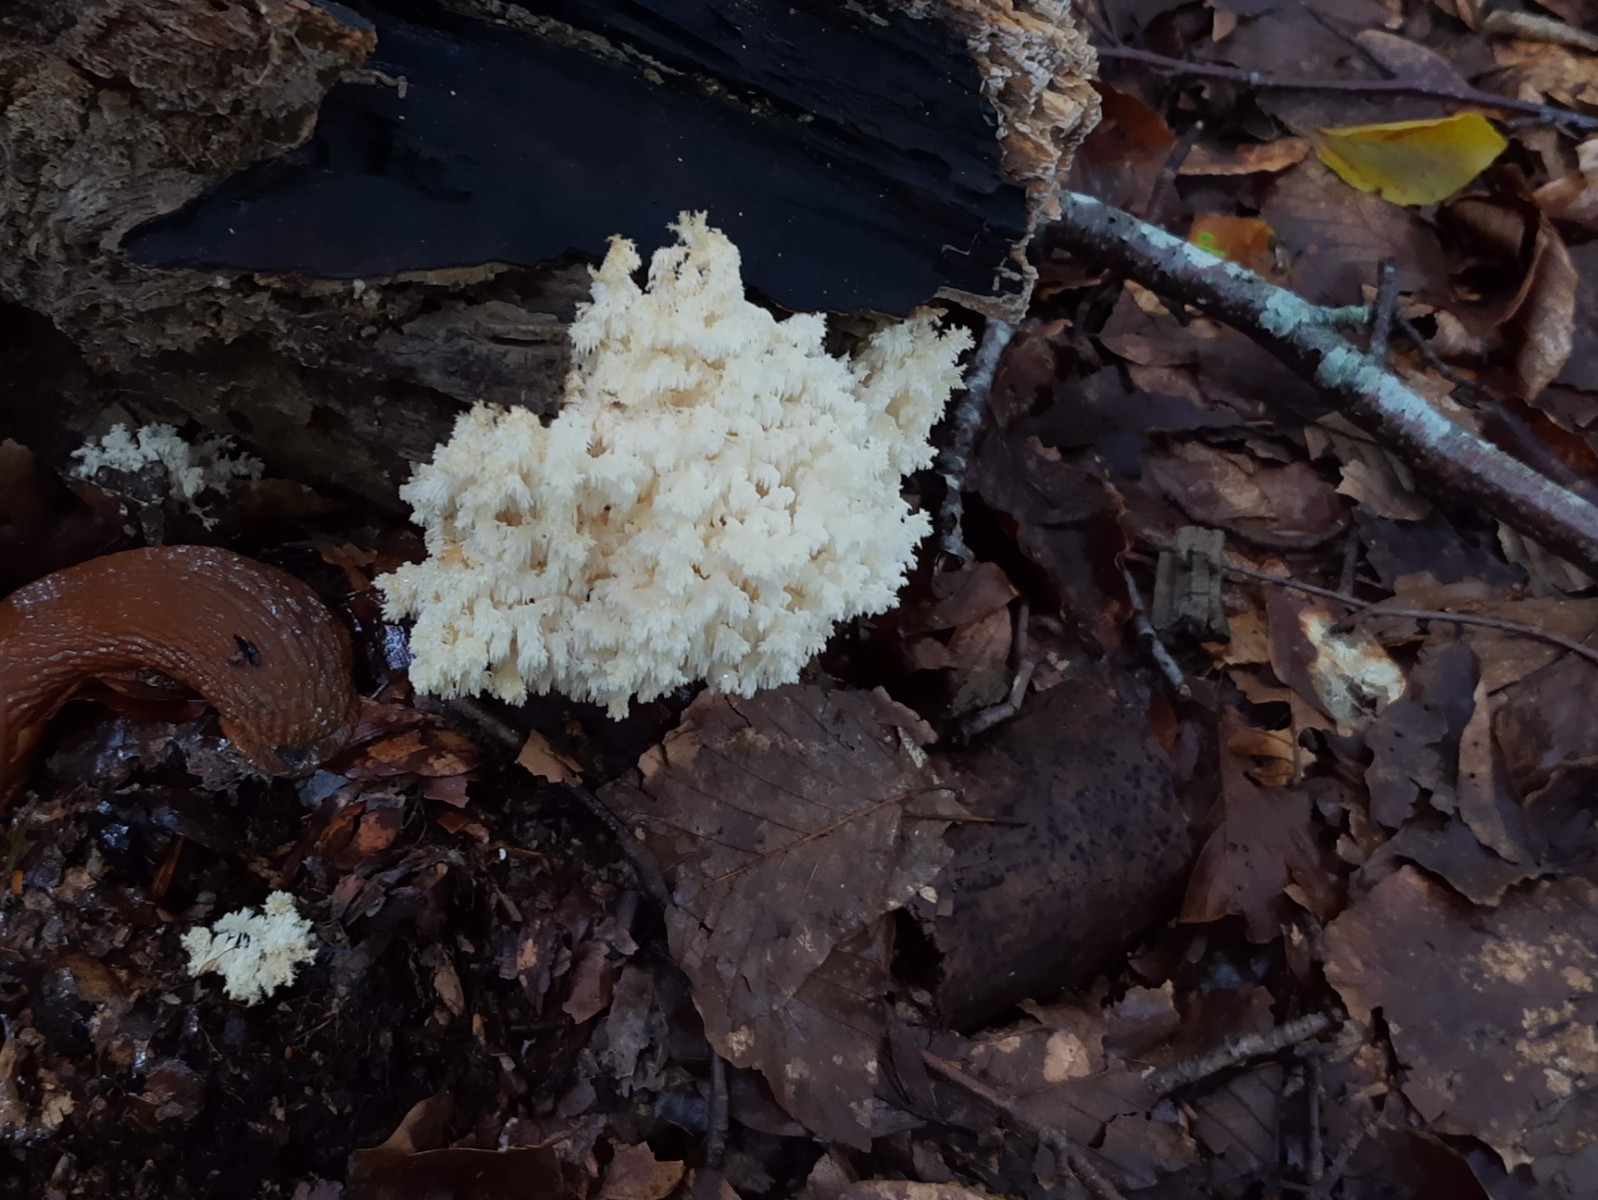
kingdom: Fungi
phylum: Basidiomycota
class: Agaricomycetes
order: Russulales
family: Hericiaceae
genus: Hericium
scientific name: Hericium coralloides
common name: koralpigsvamp
